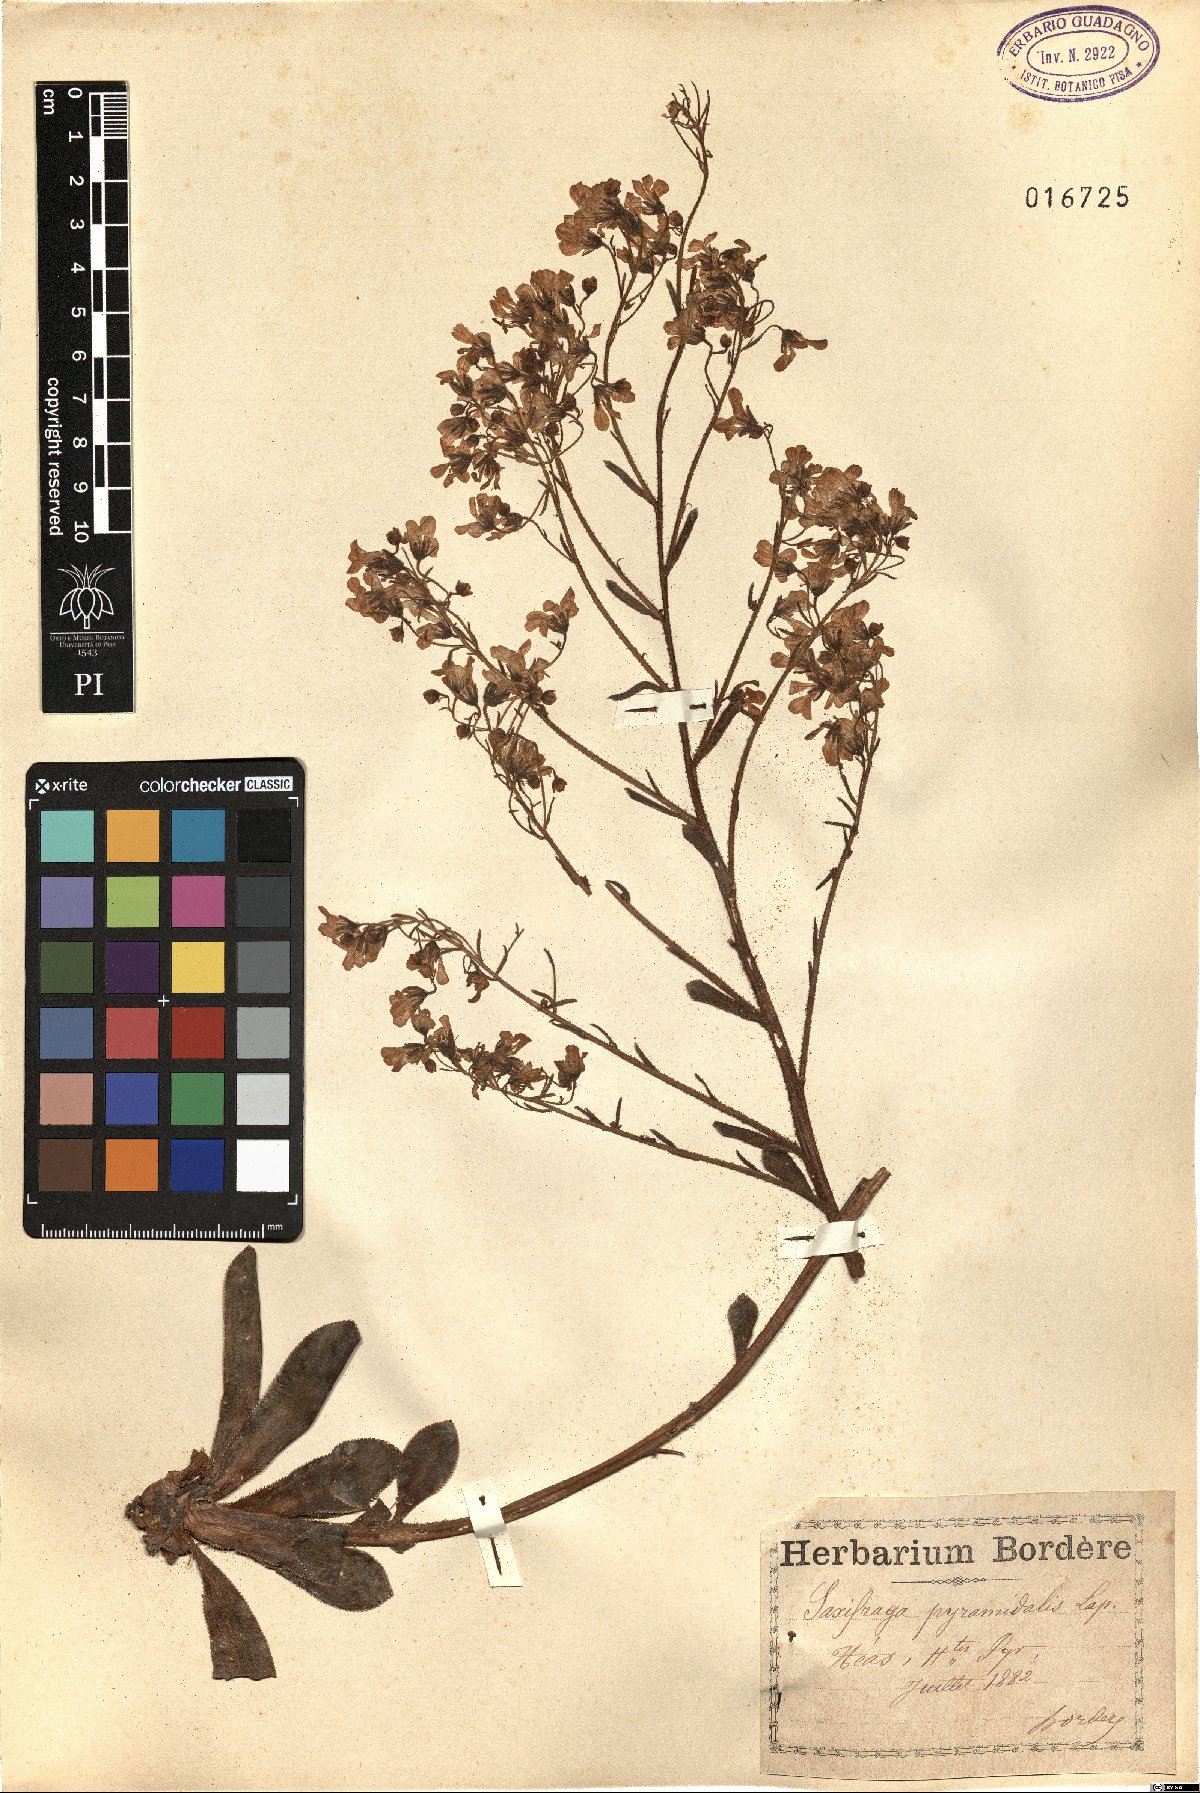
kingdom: Plantae
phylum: Tracheophyta
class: Magnoliopsida
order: Saxifragales
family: Saxifragaceae
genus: Saxifraga
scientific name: Saxifraga cotyledon
